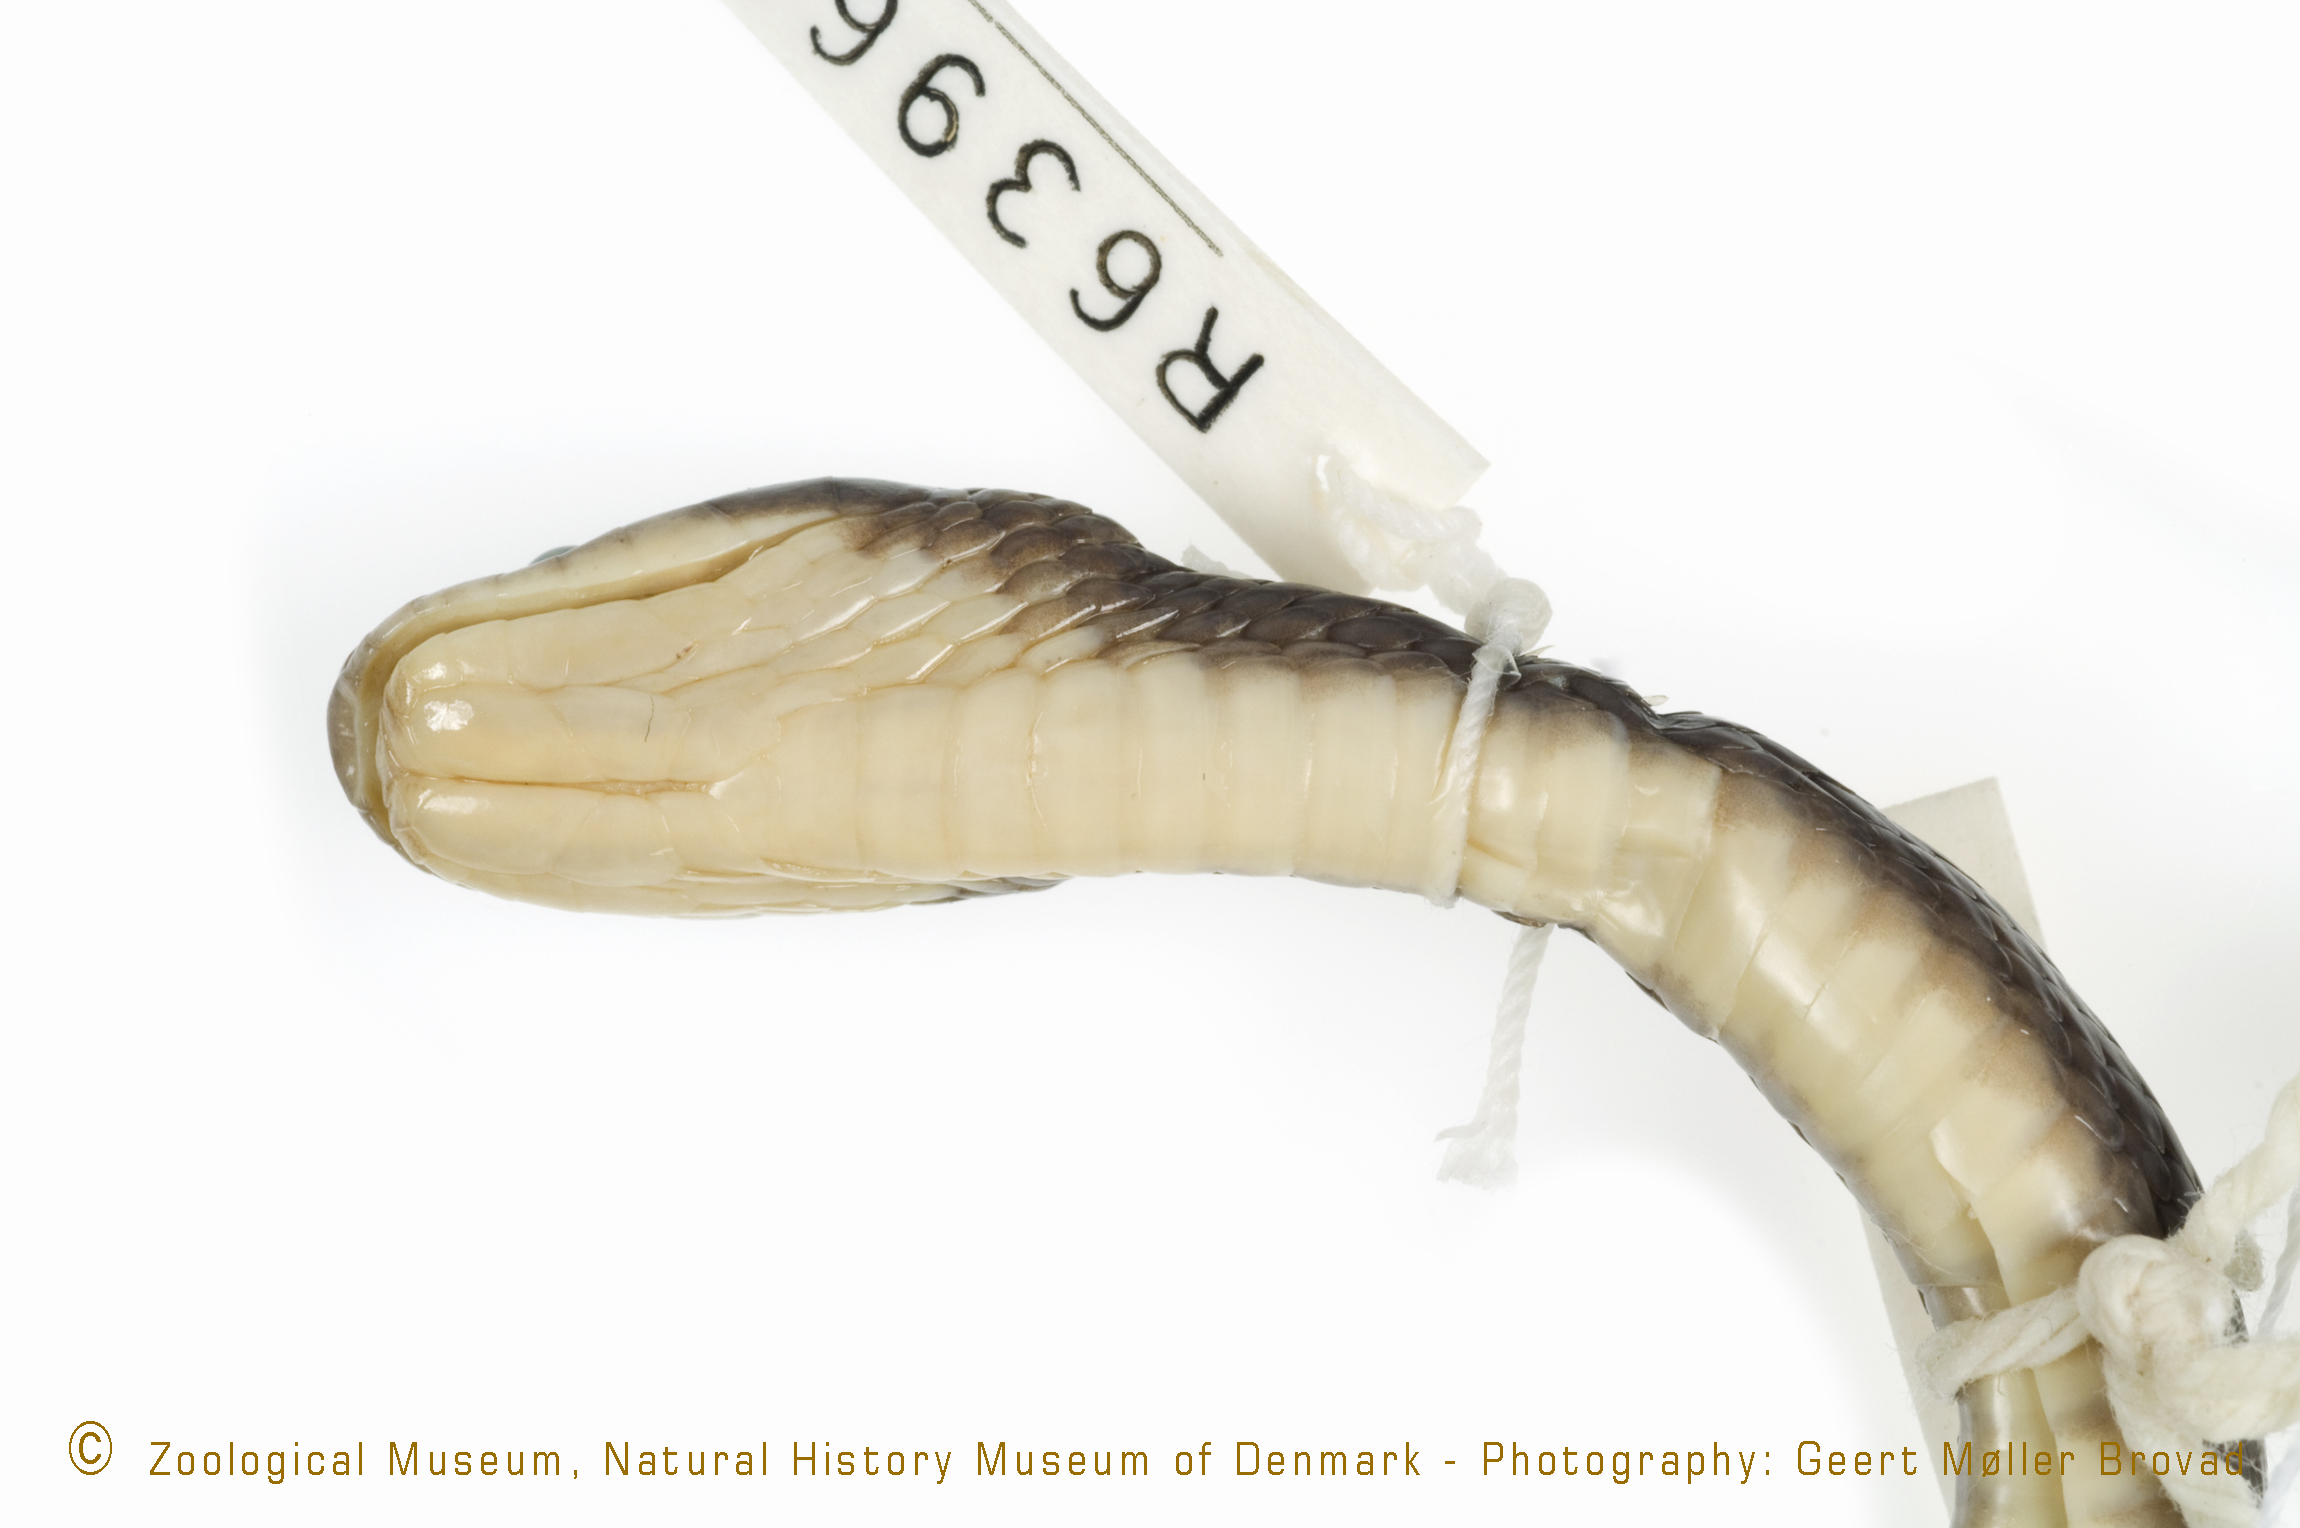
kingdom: Animalia
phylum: Chordata
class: Squamata
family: Colubridae
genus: Crotaphopeltis
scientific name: Crotaphopeltis tornieri
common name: Tornier's cat snake
